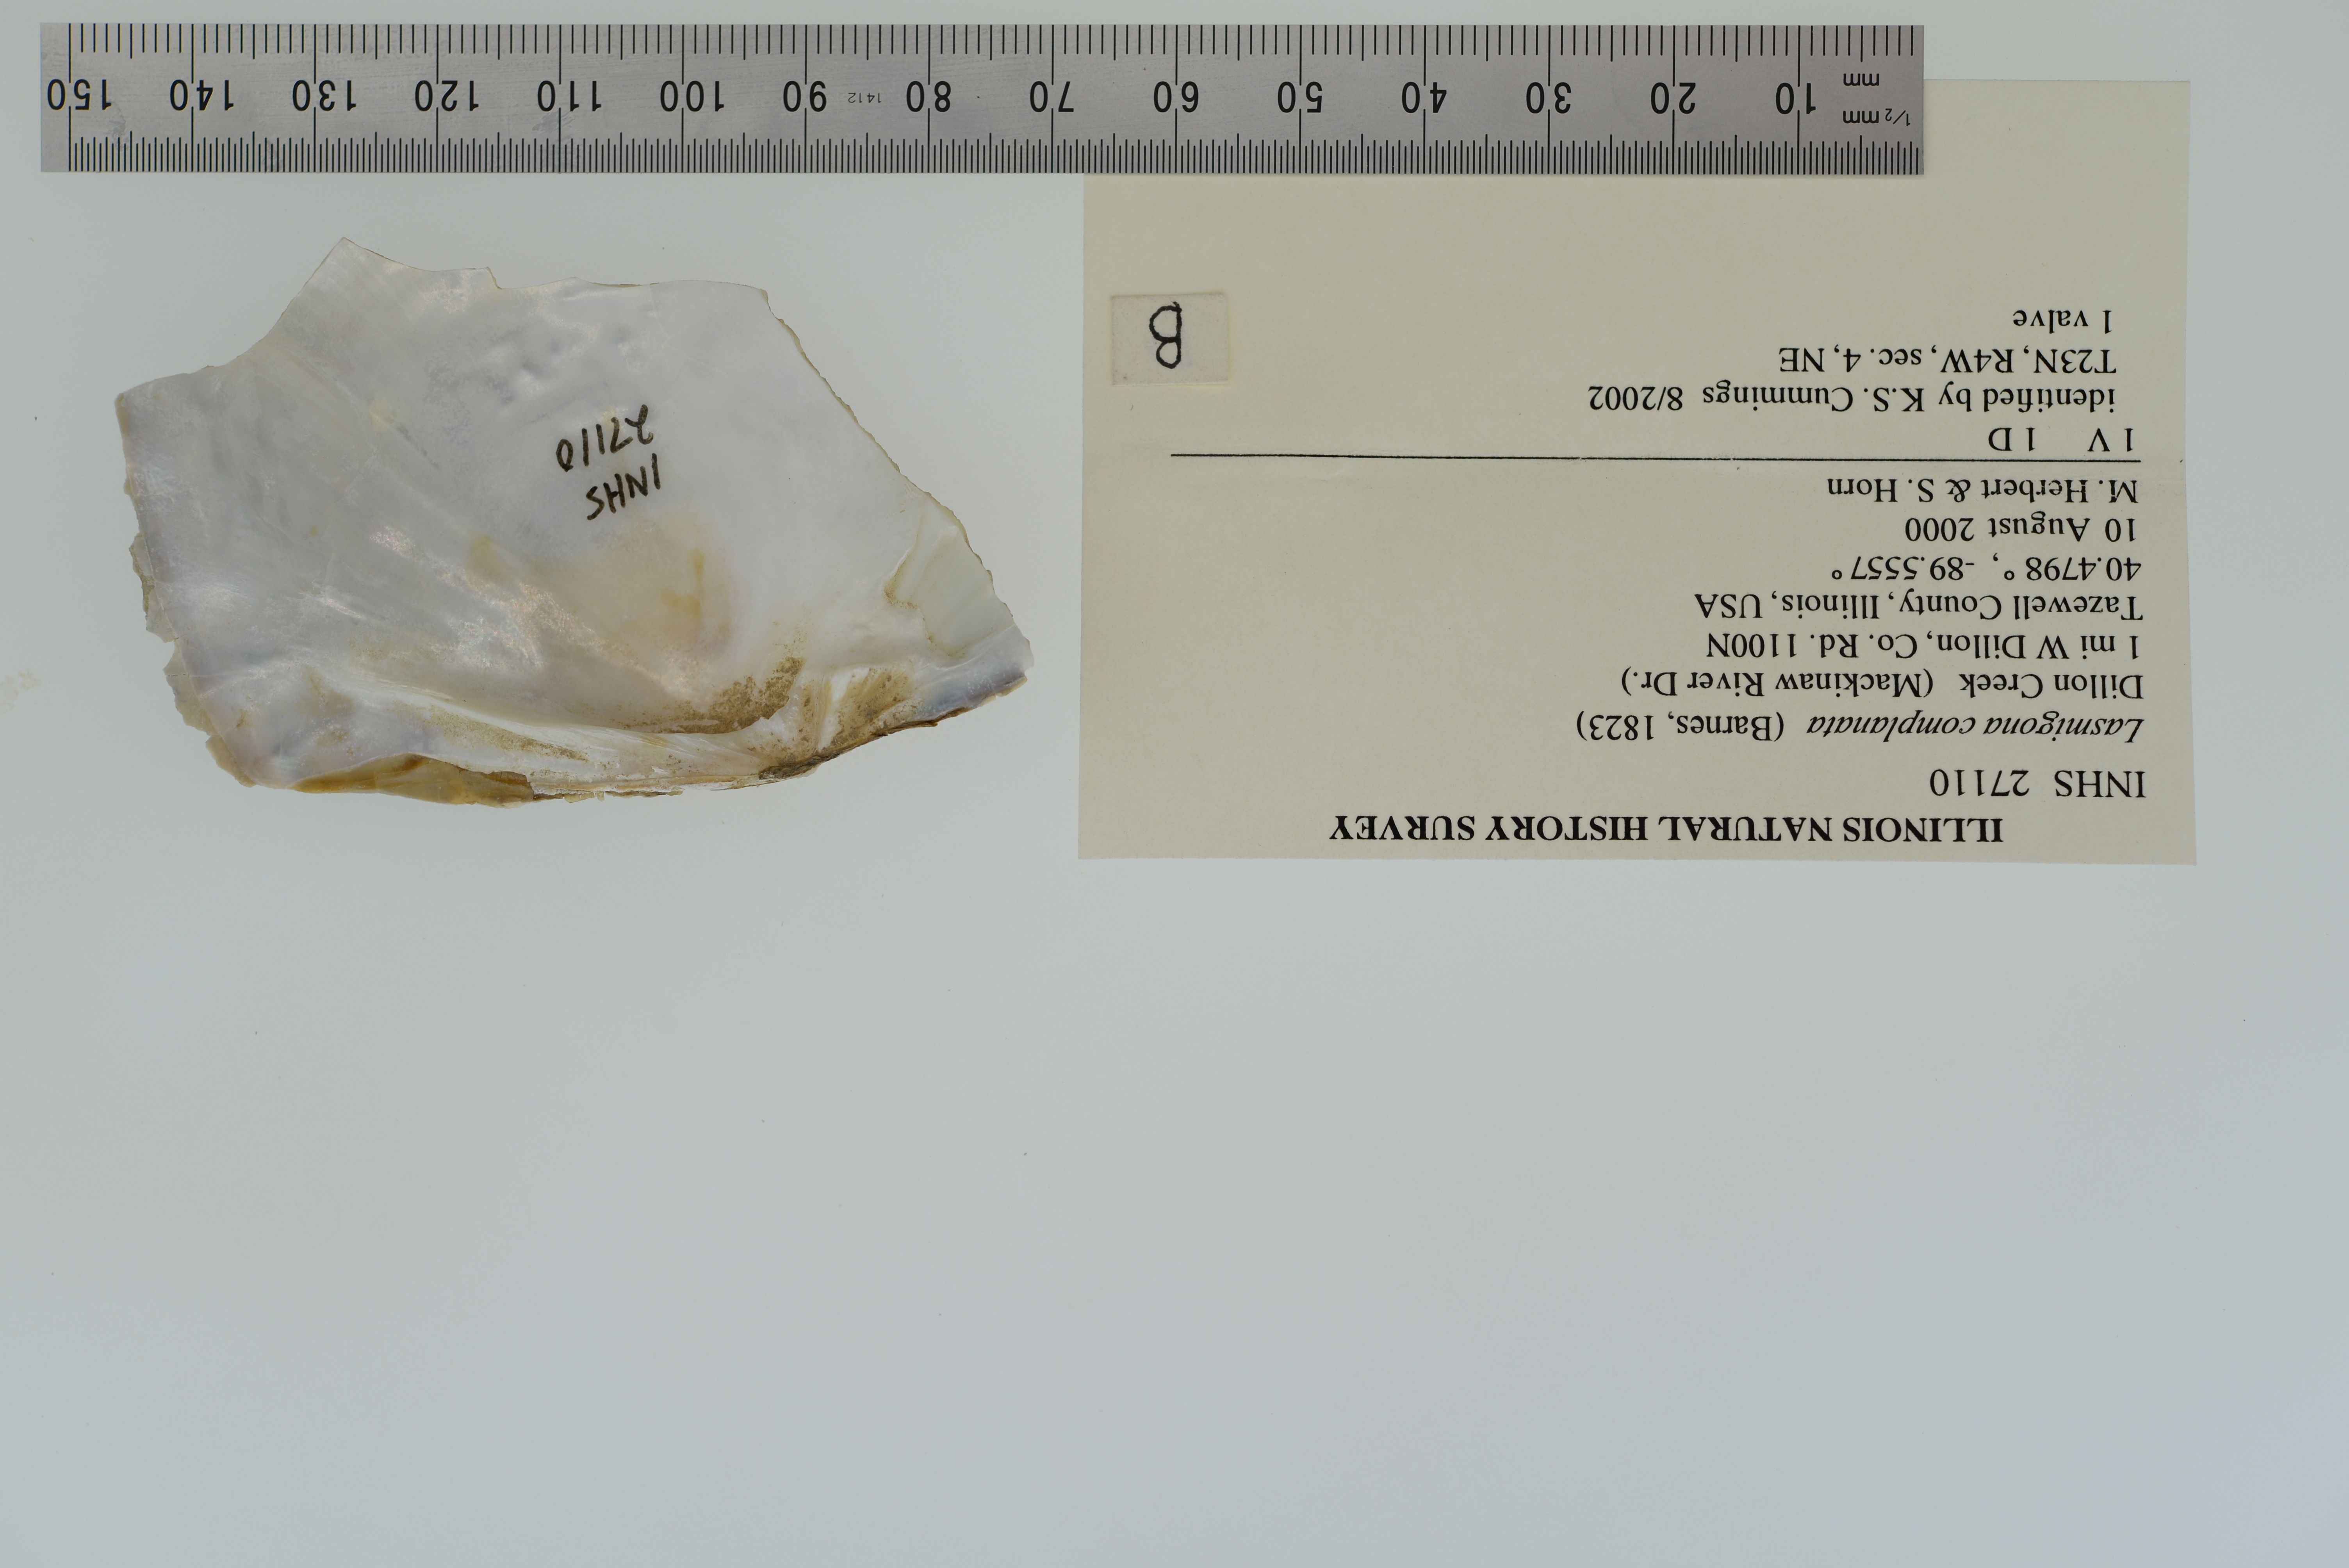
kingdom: Animalia
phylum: Mollusca
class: Bivalvia
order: Unionida
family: Unionidae
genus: Lasmigona
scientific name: Lasmigona complanata
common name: White heelsplitter
